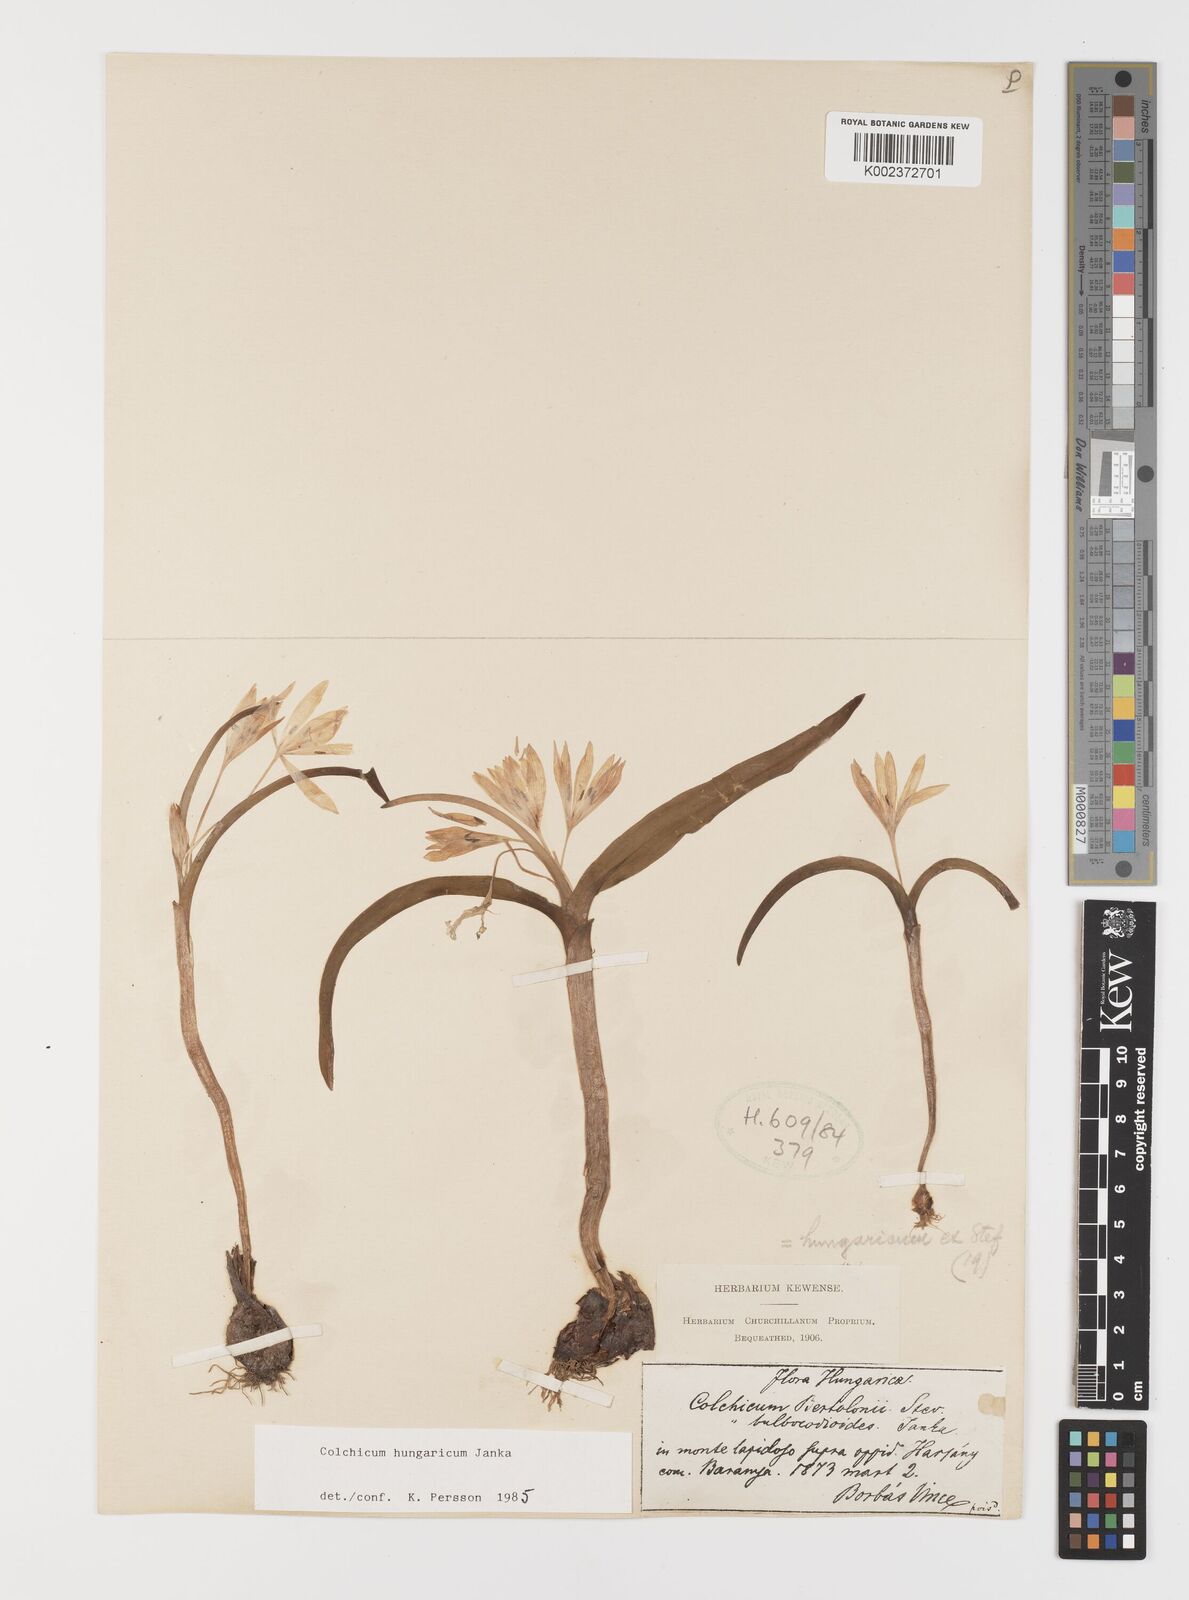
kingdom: Plantae
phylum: Tracheophyta
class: Liliopsida
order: Liliales
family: Colchicaceae
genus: Colchicum
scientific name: Colchicum hungaricum
